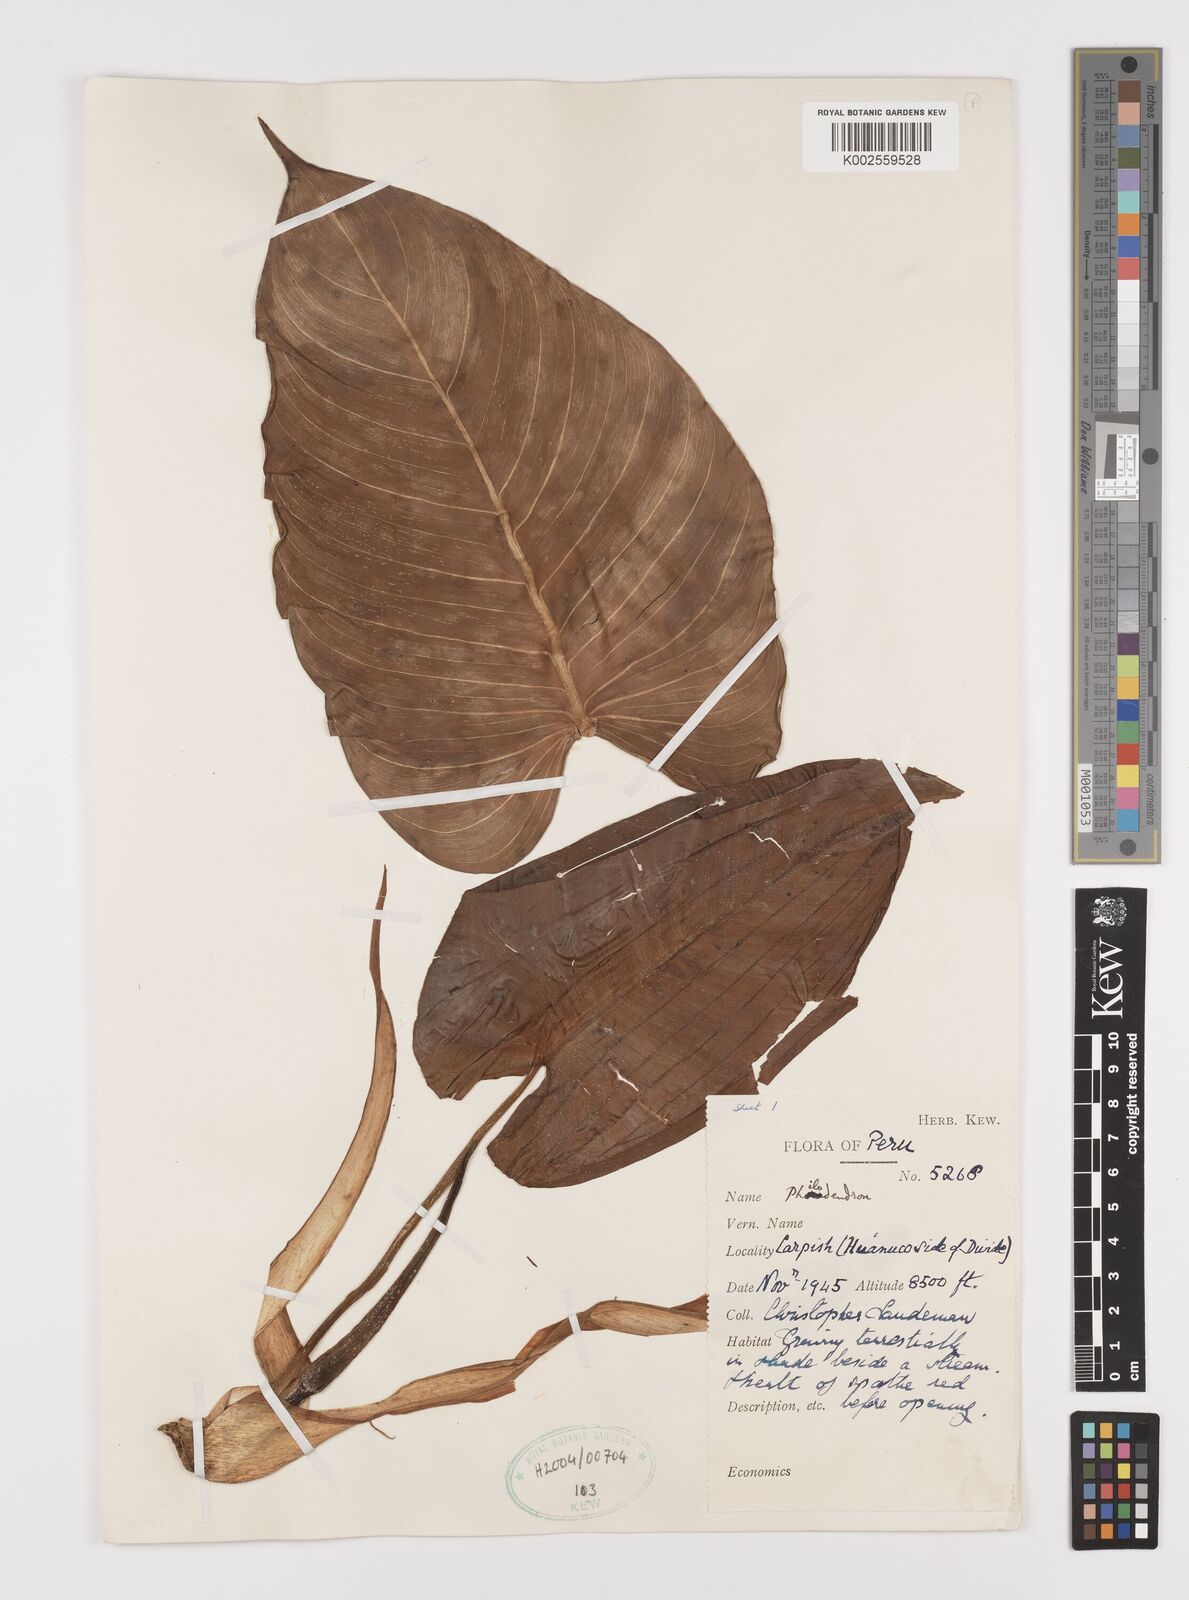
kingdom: Plantae
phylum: Tracheophyta
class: Liliopsida
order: Alismatales
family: Araceae
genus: Philodendron
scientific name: Philodendron
